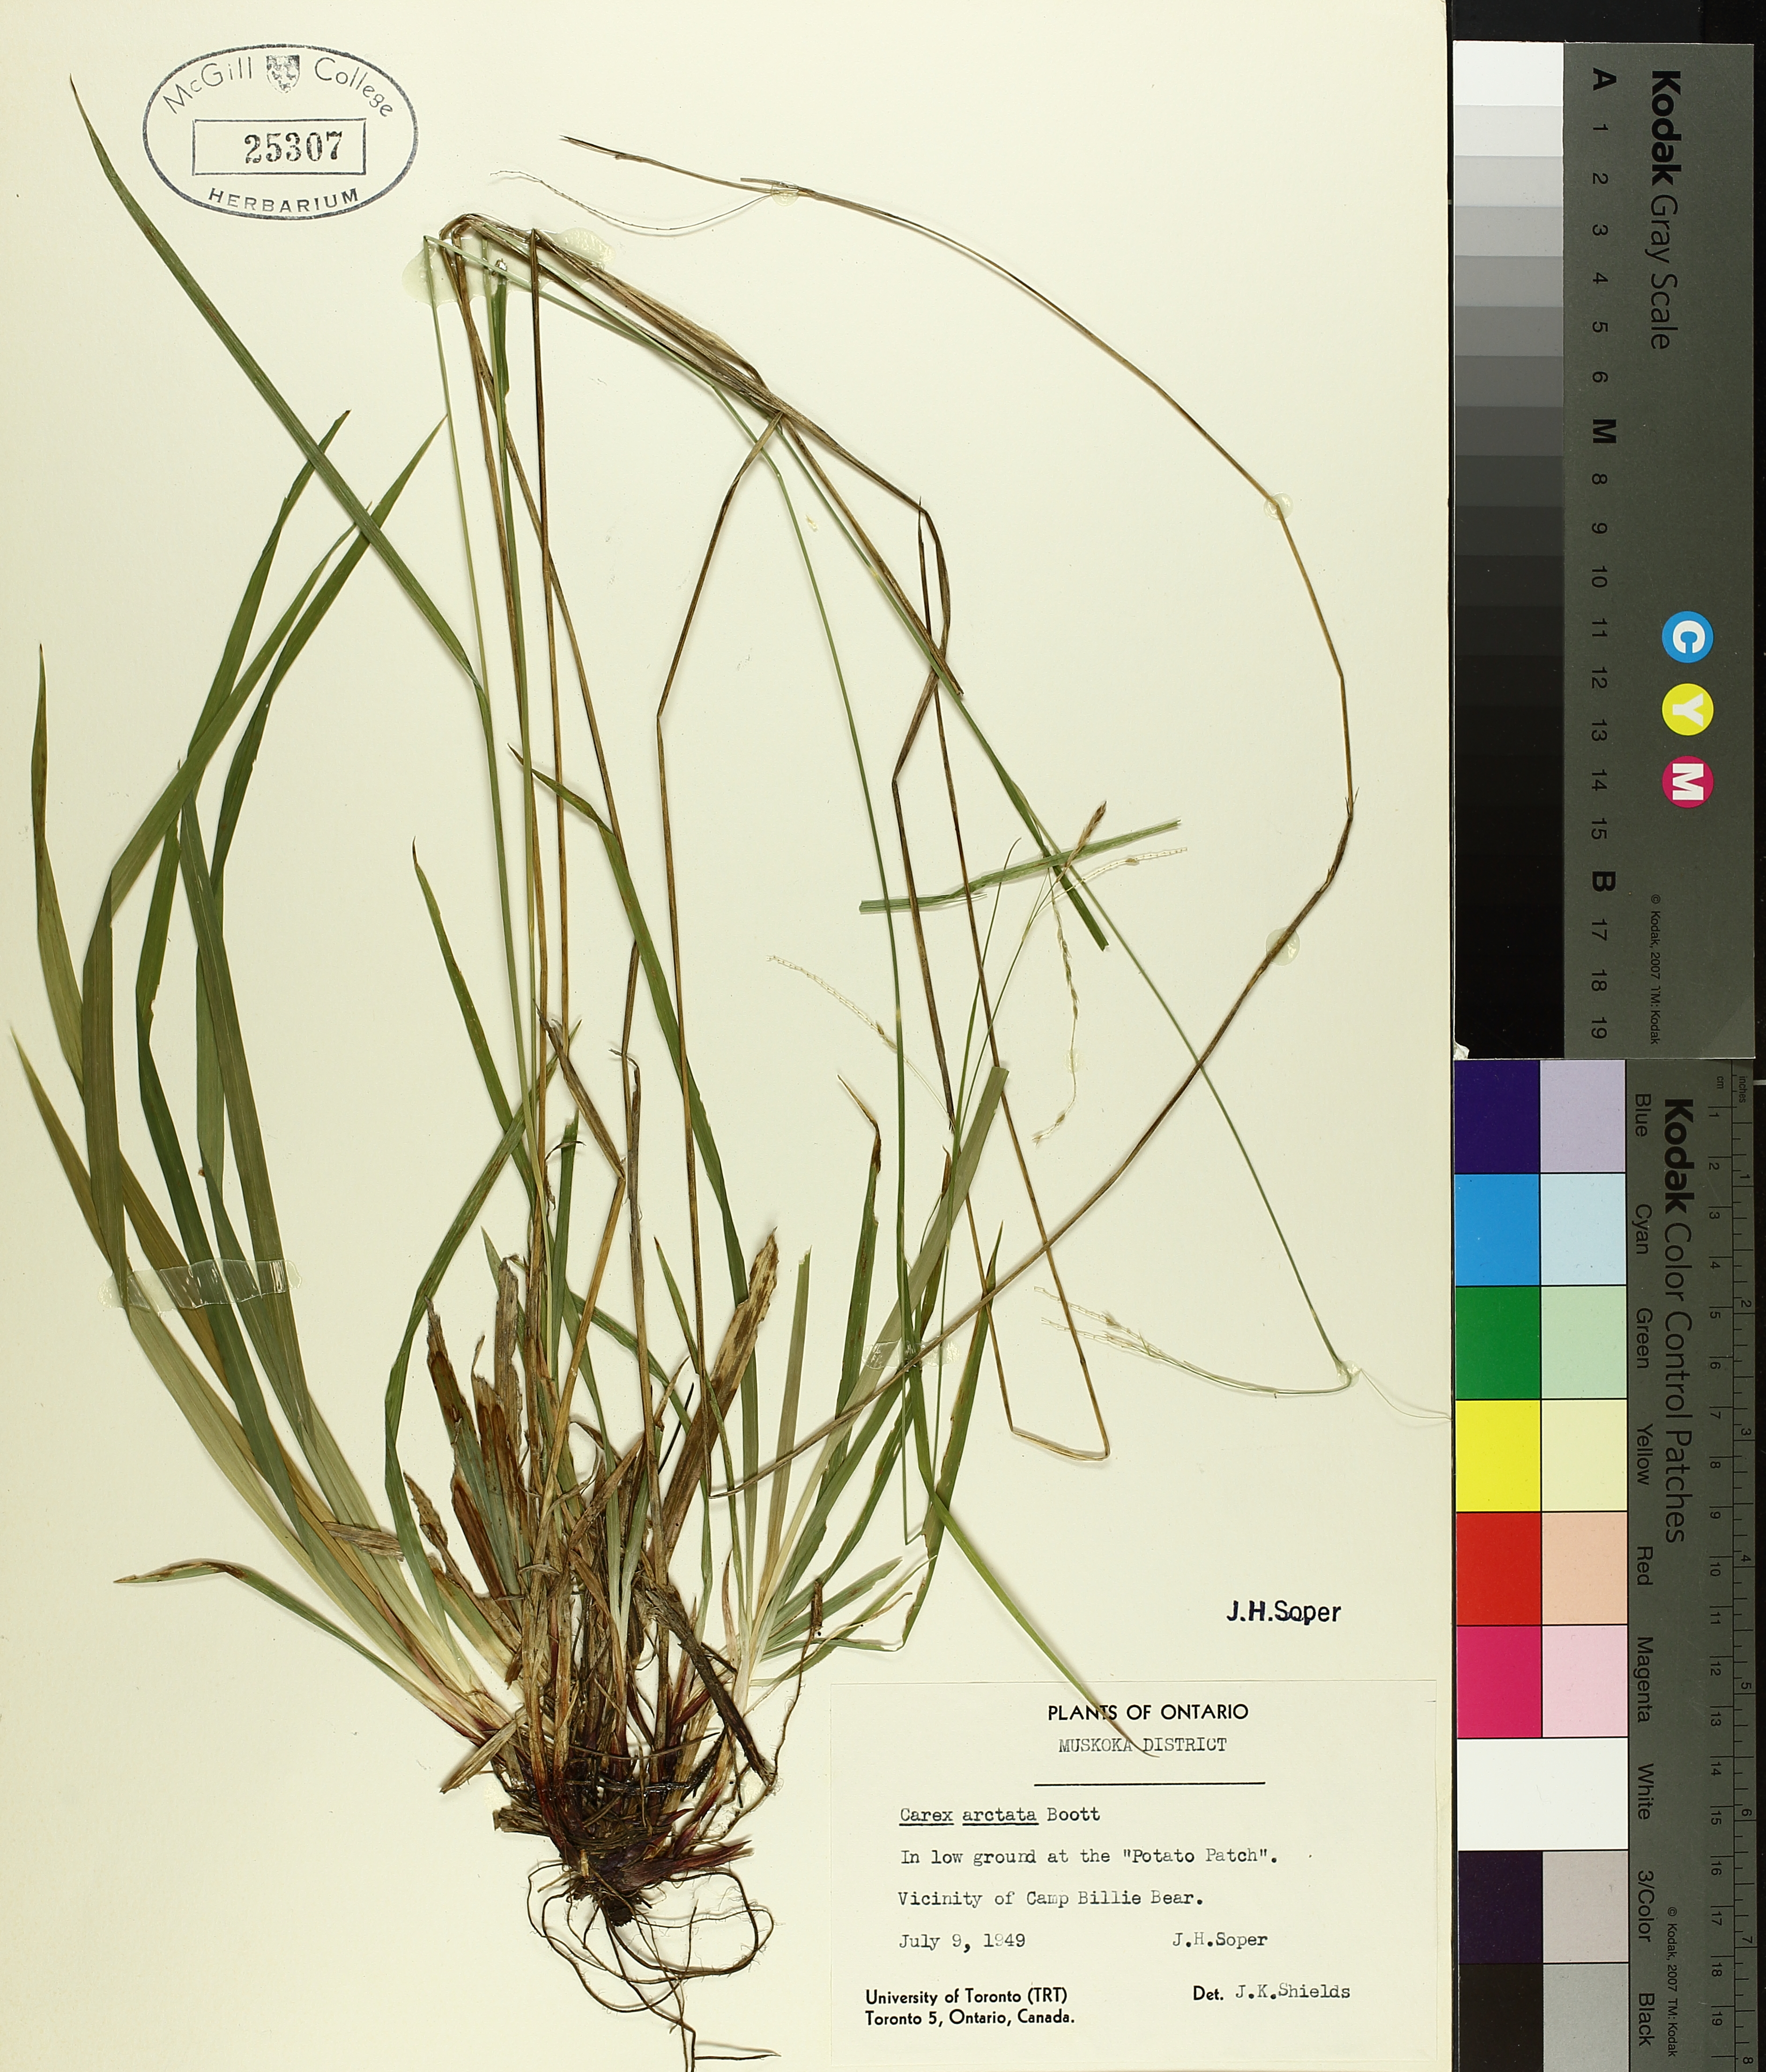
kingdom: Plantae
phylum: Tracheophyta
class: Liliopsida
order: Poales
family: Cyperaceae
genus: Carex
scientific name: Carex arctata
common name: Black sedge
